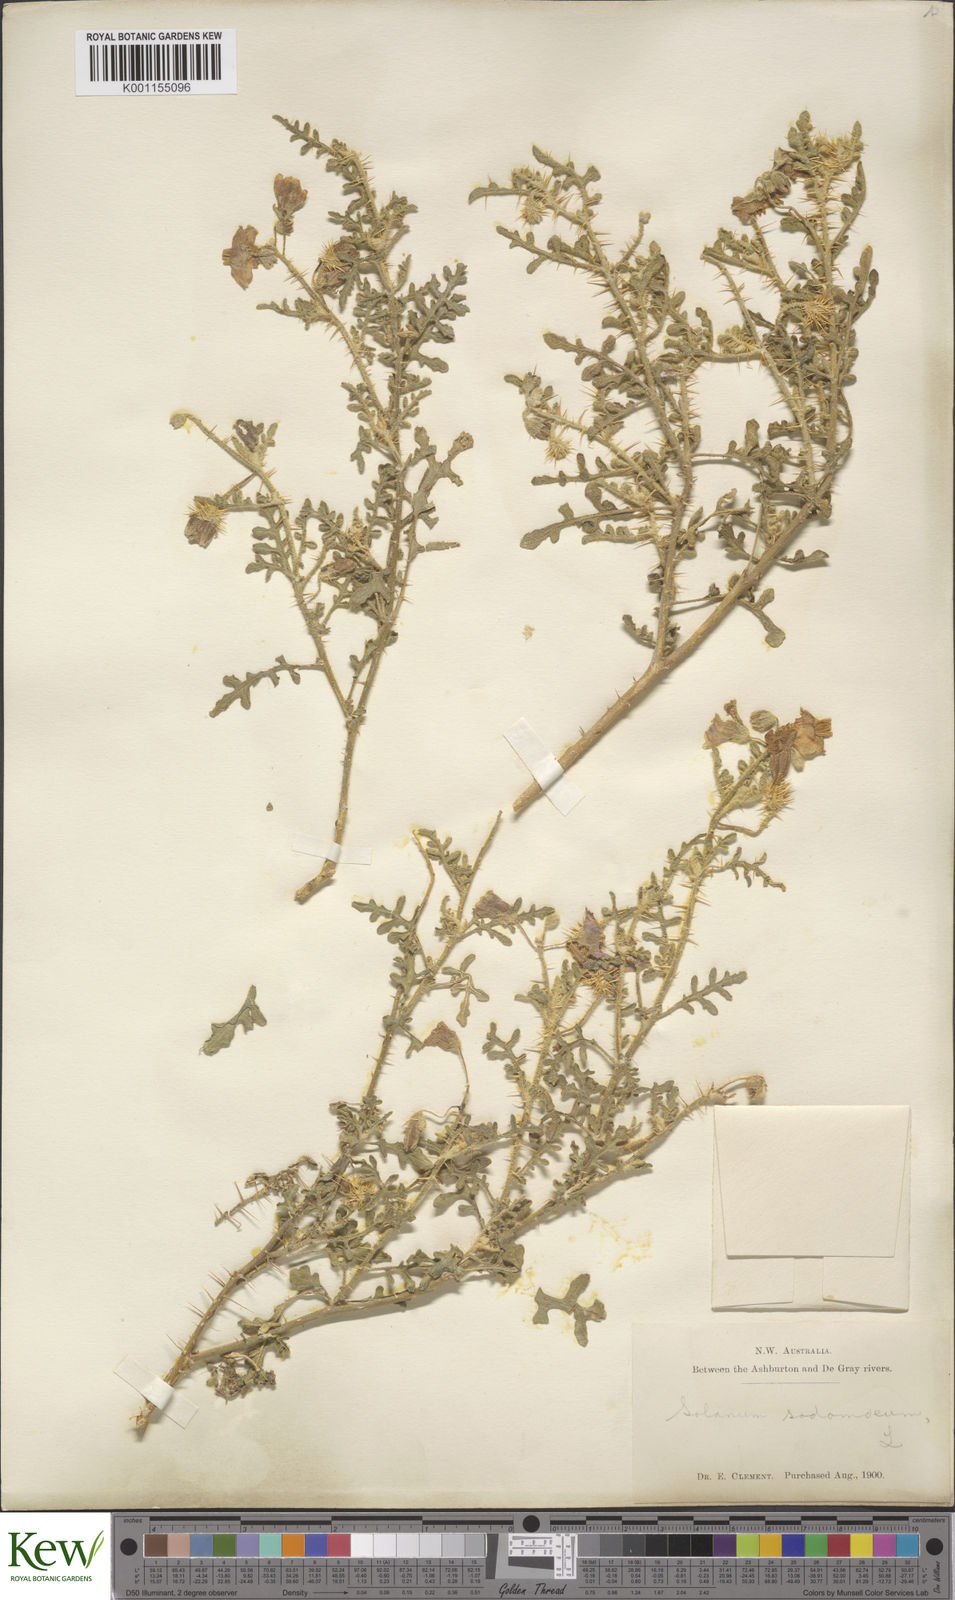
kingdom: Plantae
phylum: Tracheophyta
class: Magnoliopsida
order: Solanales
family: Solanaceae
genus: Solanum
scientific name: Solanum diversiflorum
